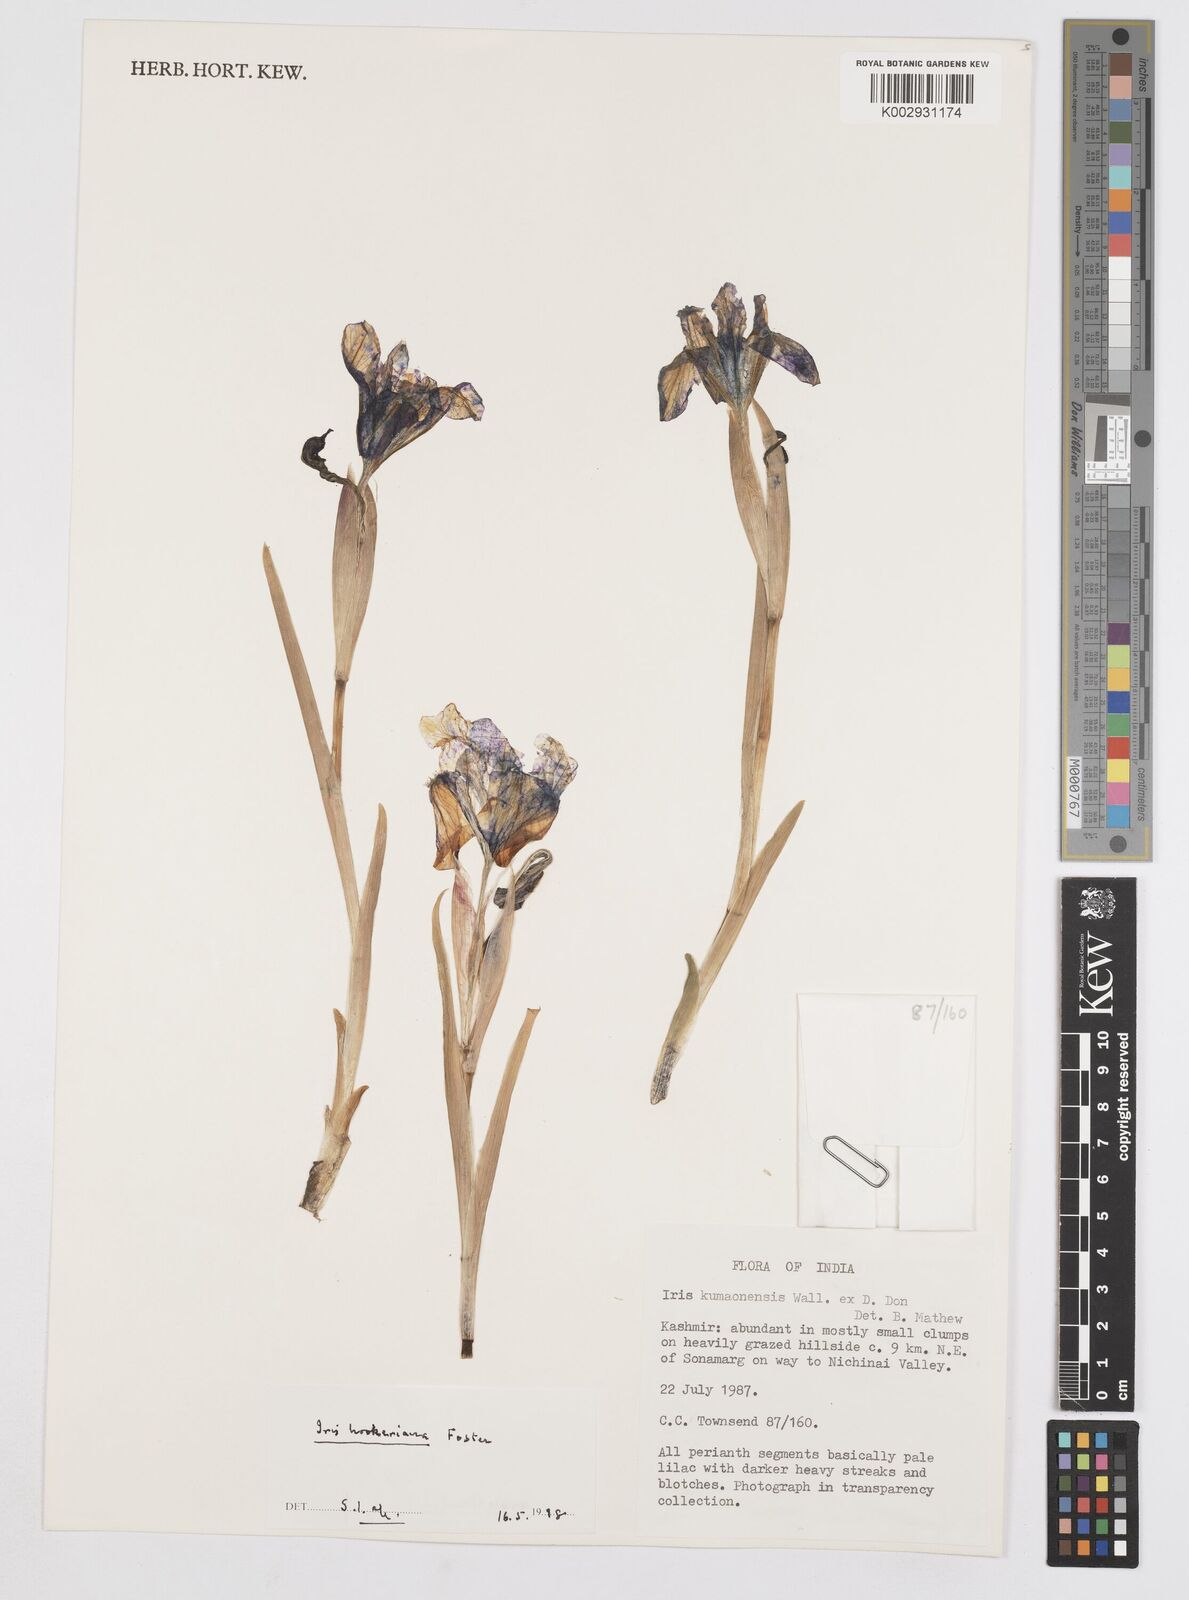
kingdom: Plantae
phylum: Tracheophyta
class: Liliopsida
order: Asparagales
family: Iridaceae
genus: Iris
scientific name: Iris kemaonensis
